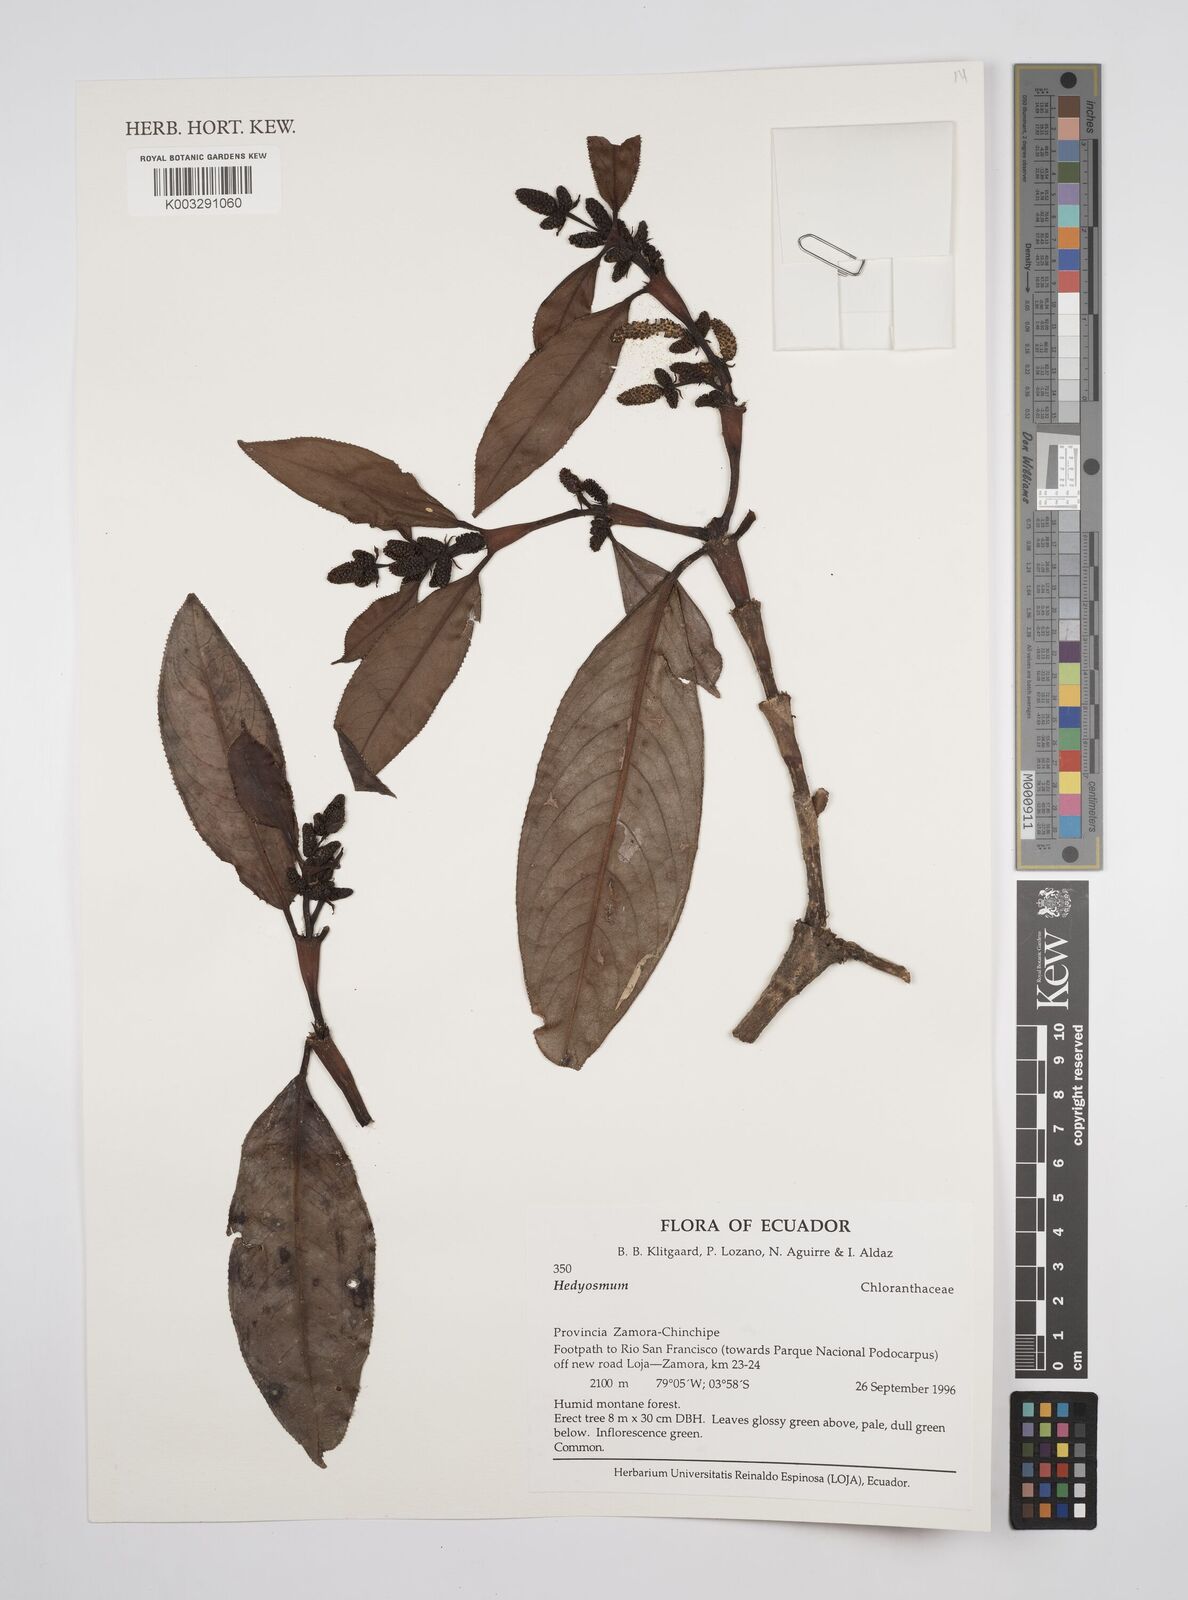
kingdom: Plantae
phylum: Tracheophyta
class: Magnoliopsida
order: Chloranthales
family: Chloranthaceae
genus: Hedyosmum
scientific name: Hedyosmum
